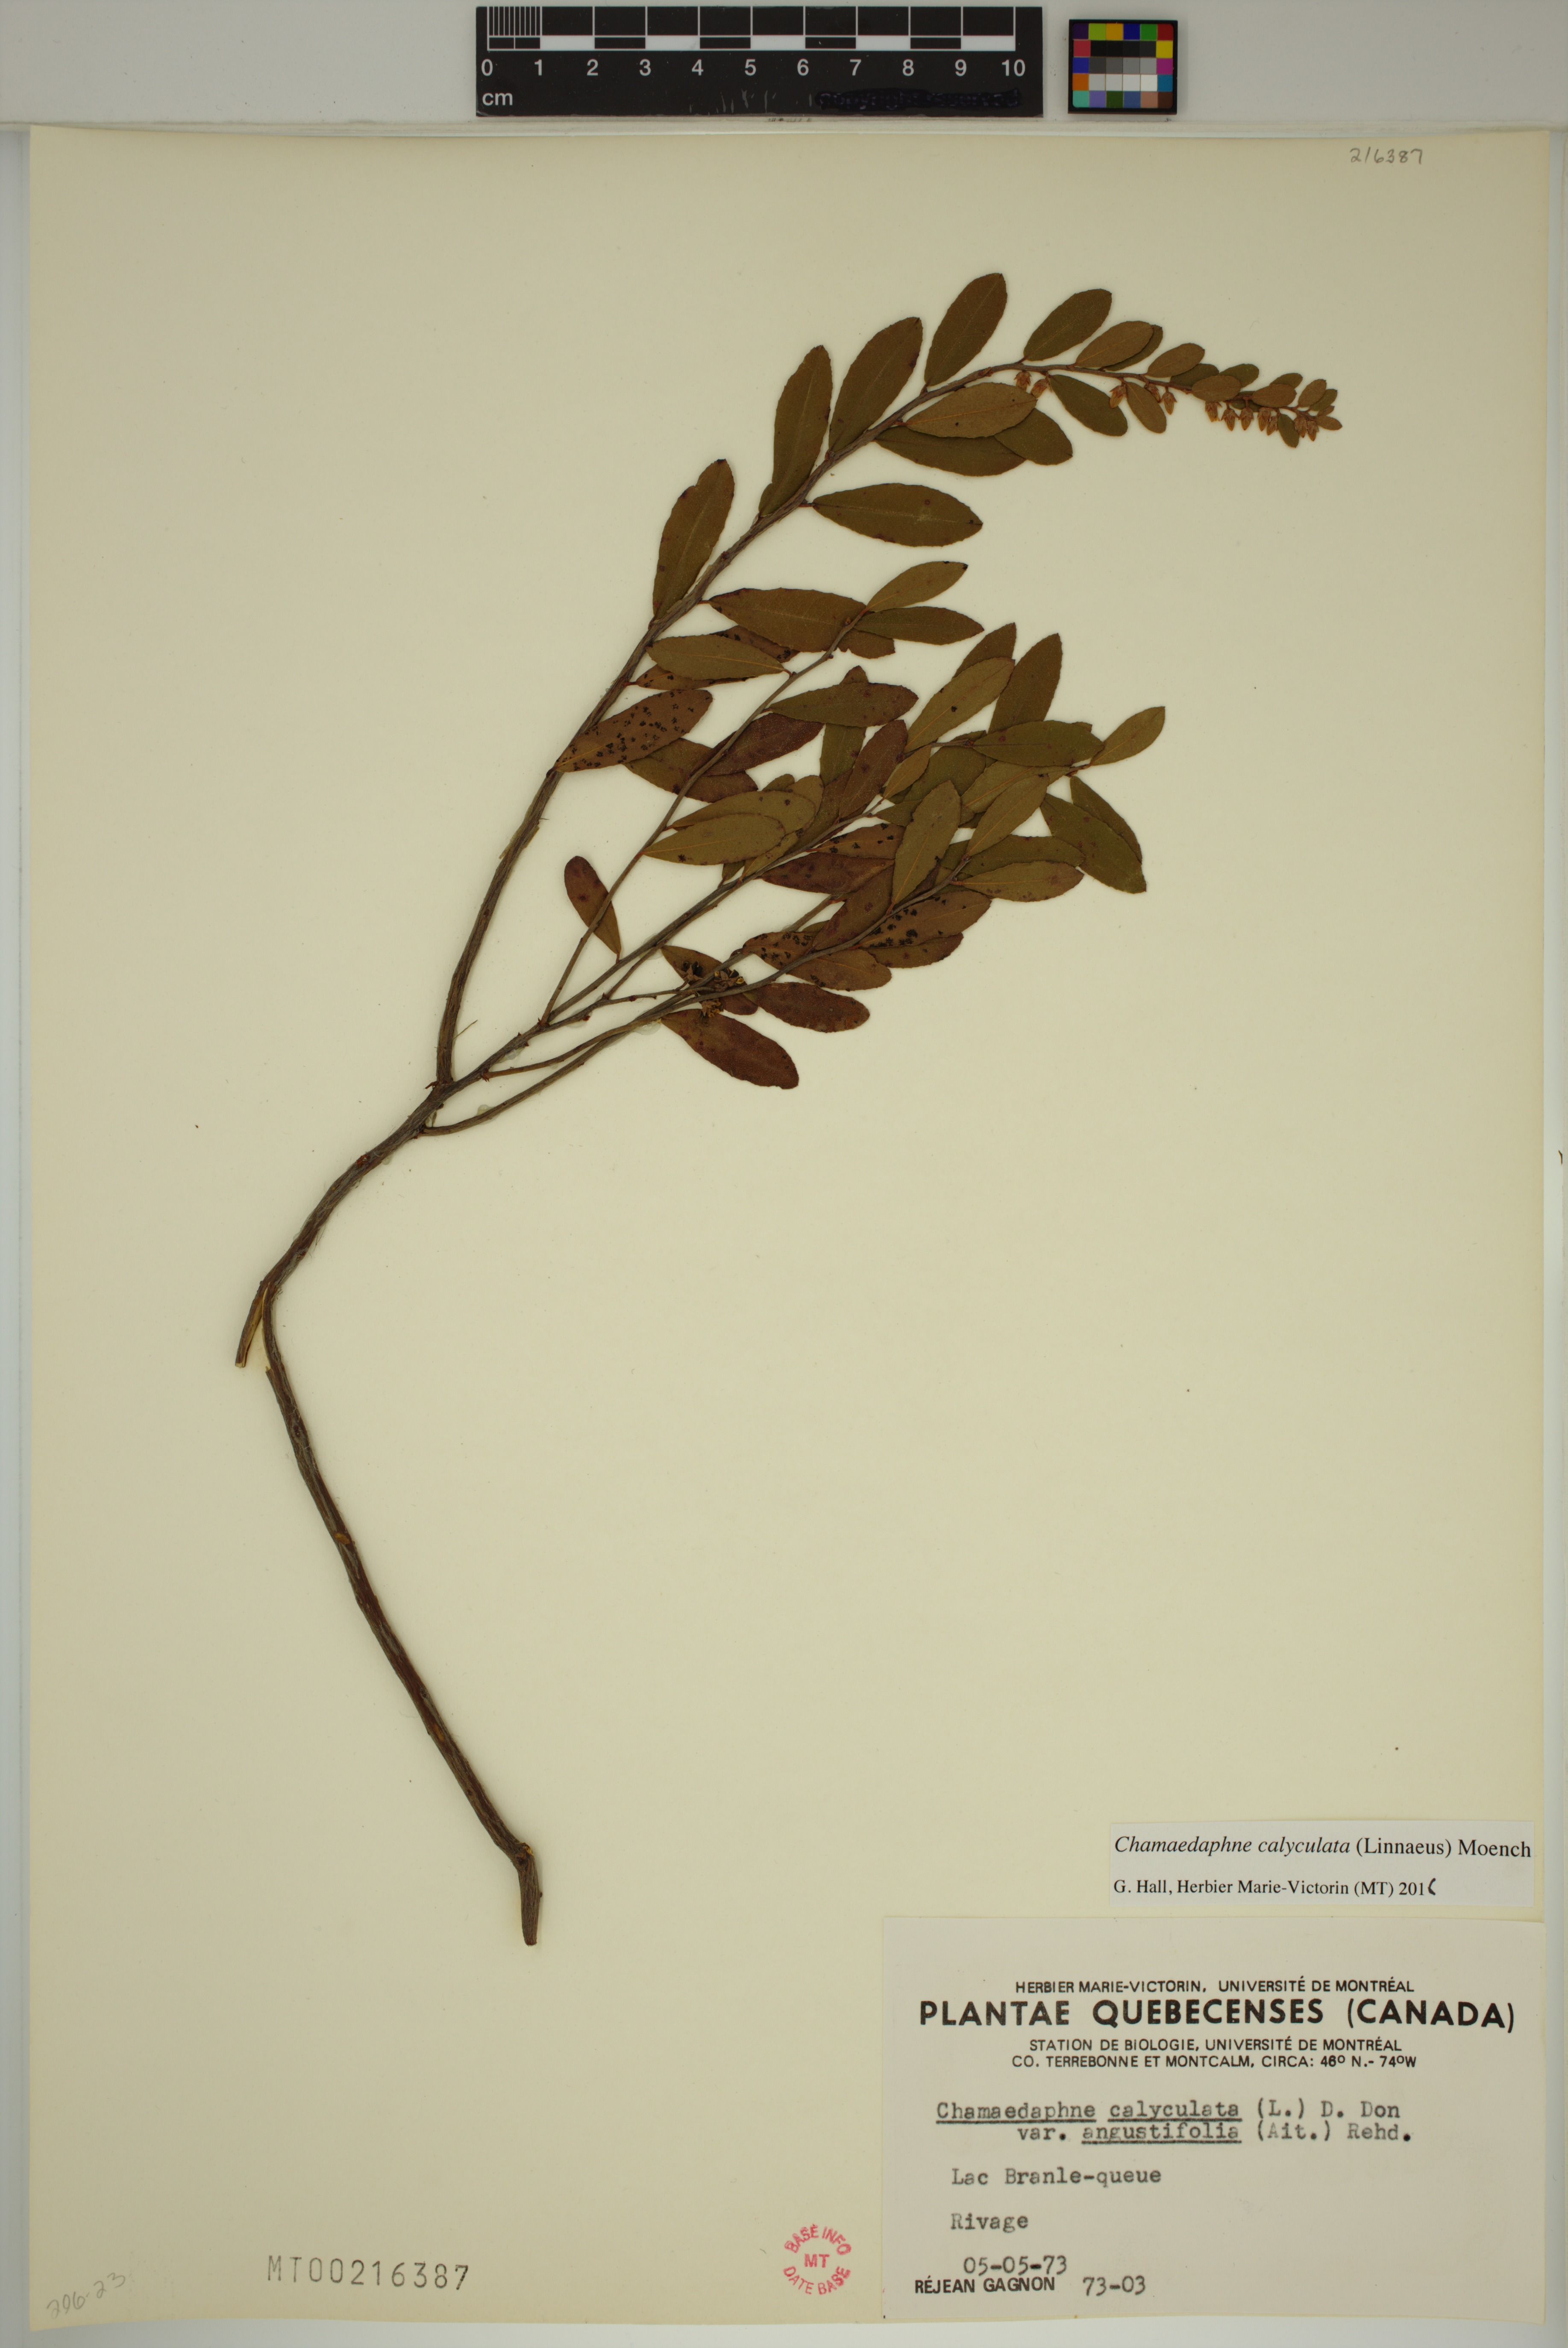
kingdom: Plantae
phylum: Tracheophyta
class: Magnoliopsida
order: Ericales
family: Ericaceae
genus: Chamaedaphne
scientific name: Chamaedaphne calyculata
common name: Leatherleaf
